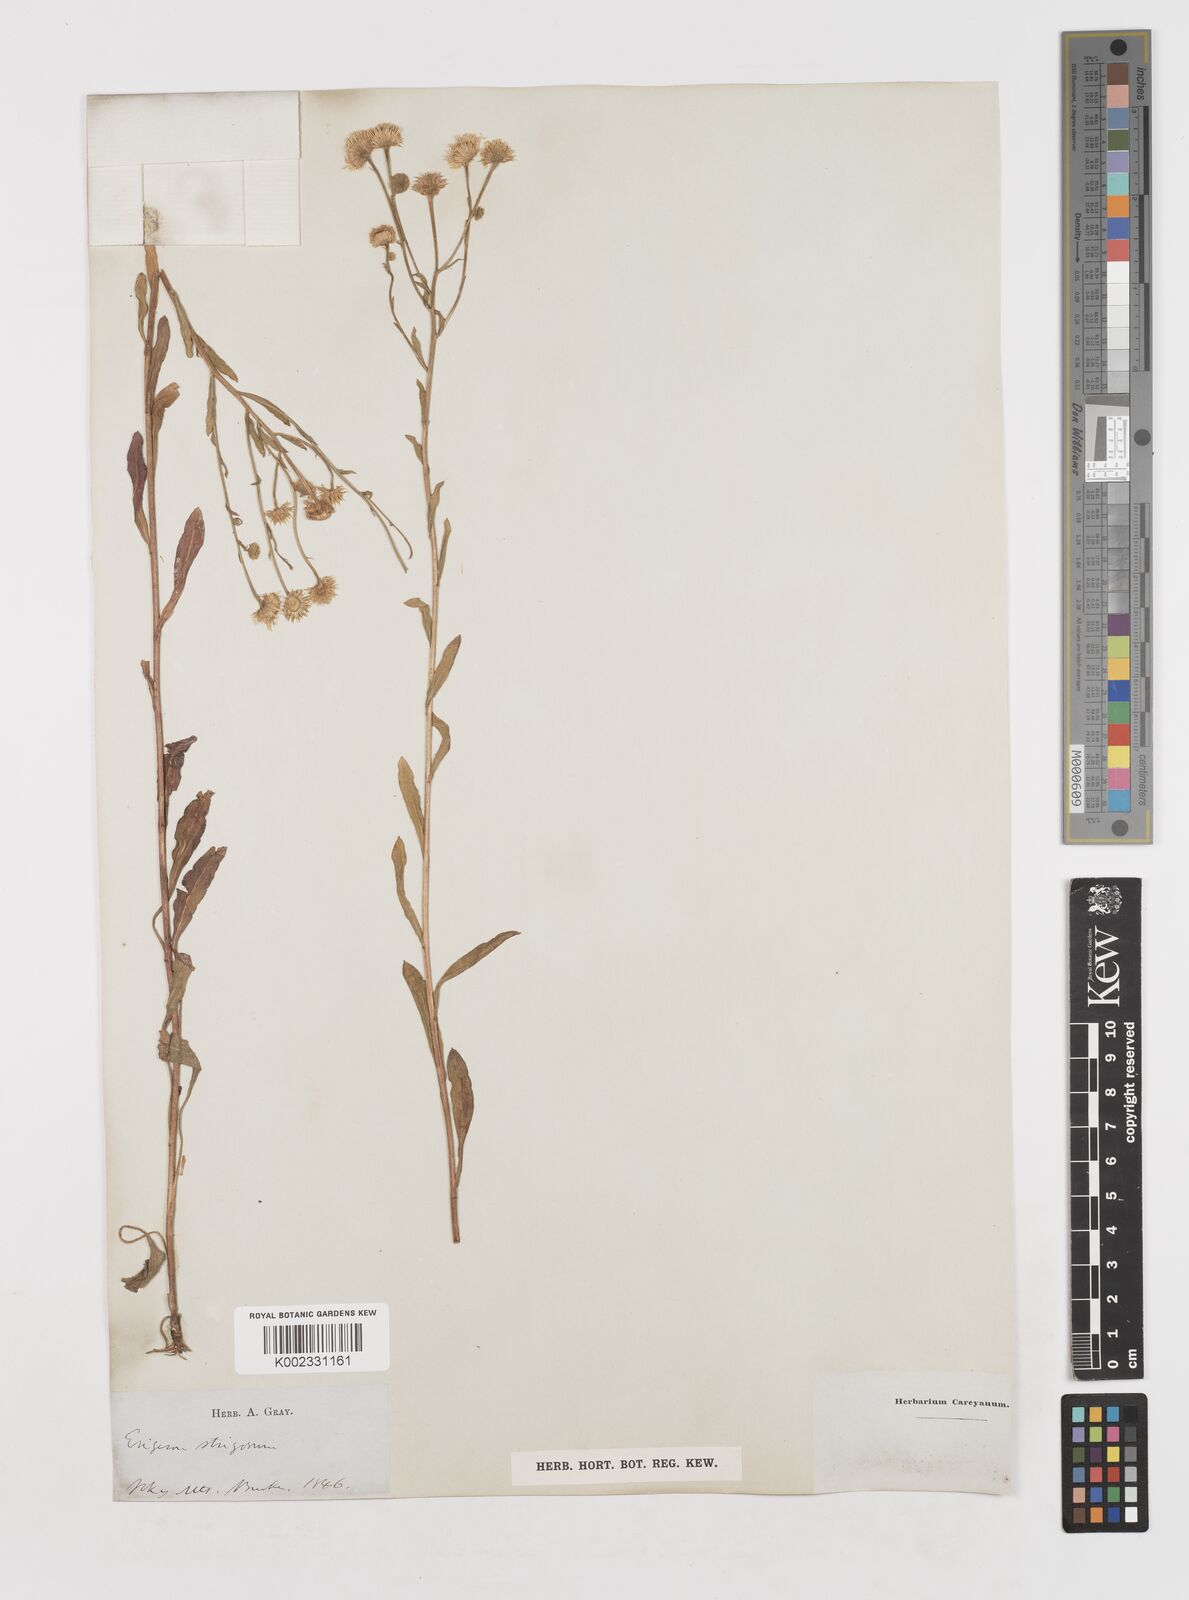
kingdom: Plantae
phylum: Tracheophyta
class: Magnoliopsida
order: Asterales
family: Asteraceae
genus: Erigeron
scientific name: Erigeron strigosus
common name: Common eastern fleabane
